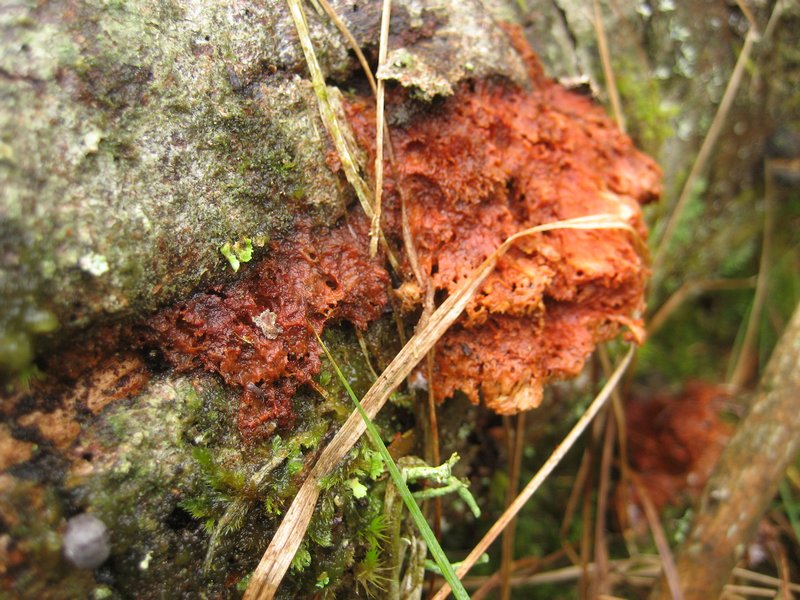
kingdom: Fungi
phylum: Basidiomycota
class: Agaricomycetes
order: Polyporales
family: Pycnoporellaceae
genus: Pycnoporellus
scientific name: Pycnoporellus fulgens
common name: flammeporesvamp
